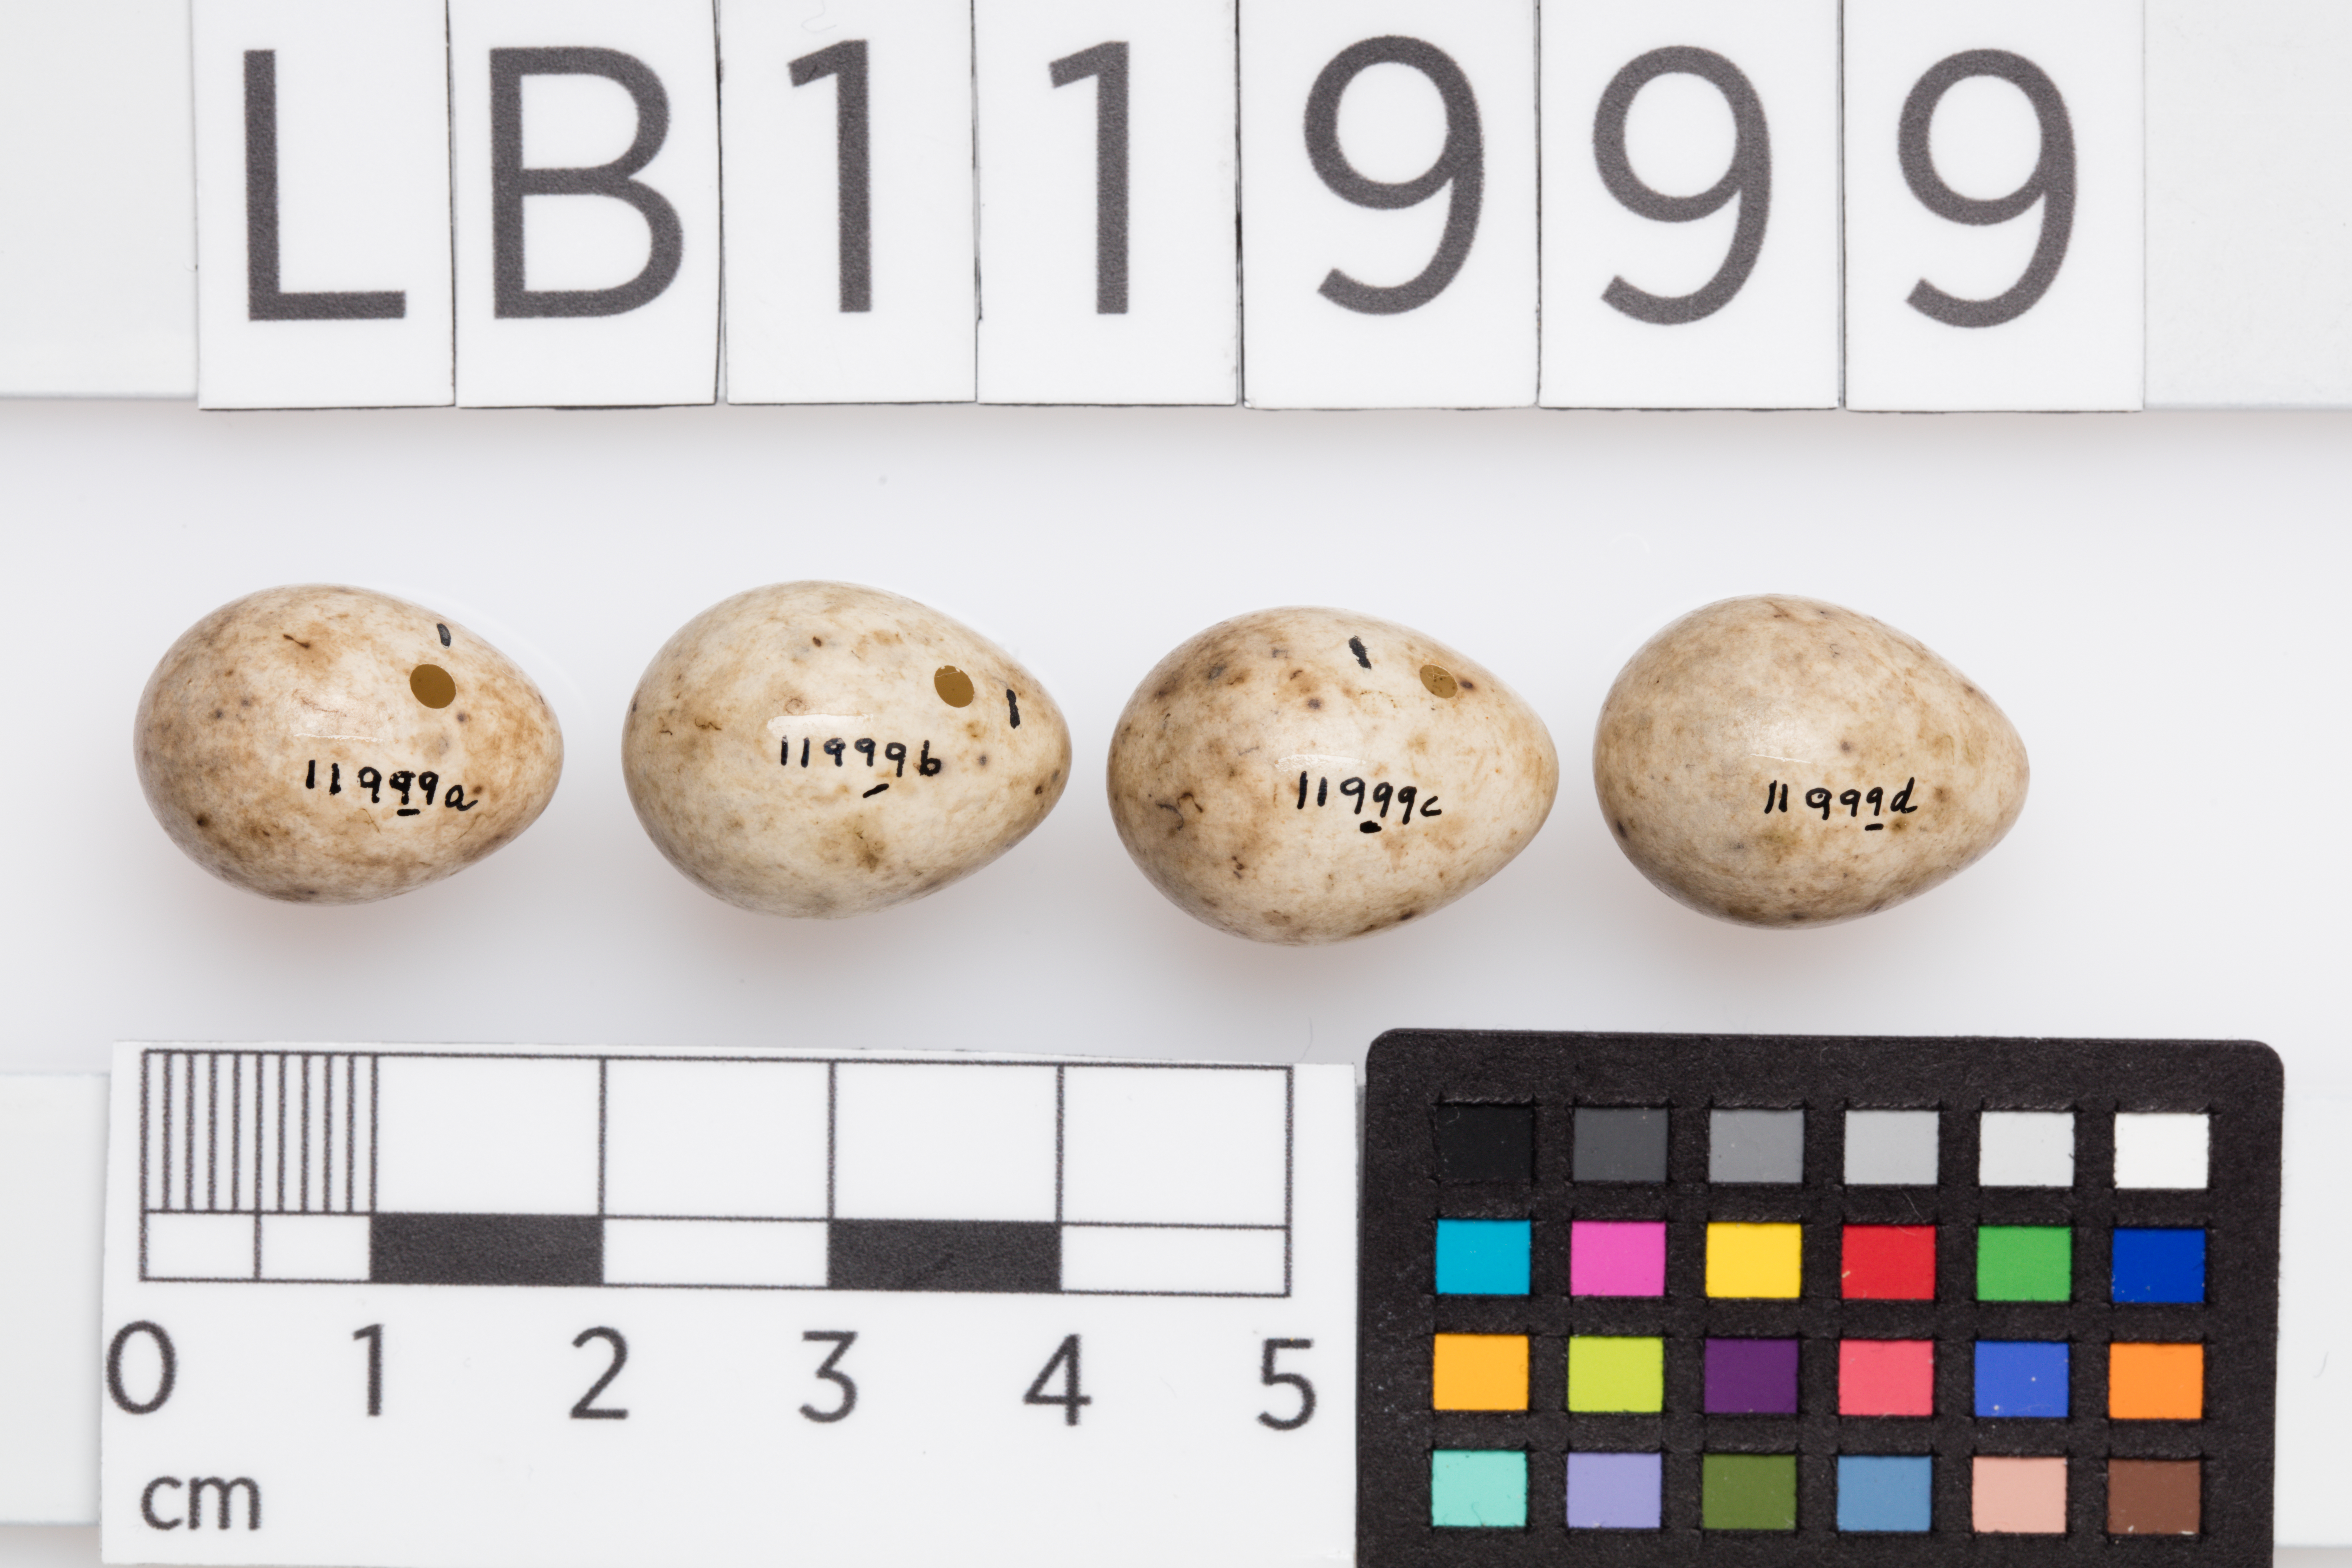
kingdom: Animalia
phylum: Chordata
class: Aves
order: Passeriformes
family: Sylviidae
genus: Sylvia
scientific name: Sylvia atricapilla
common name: Eurasian blackcap
